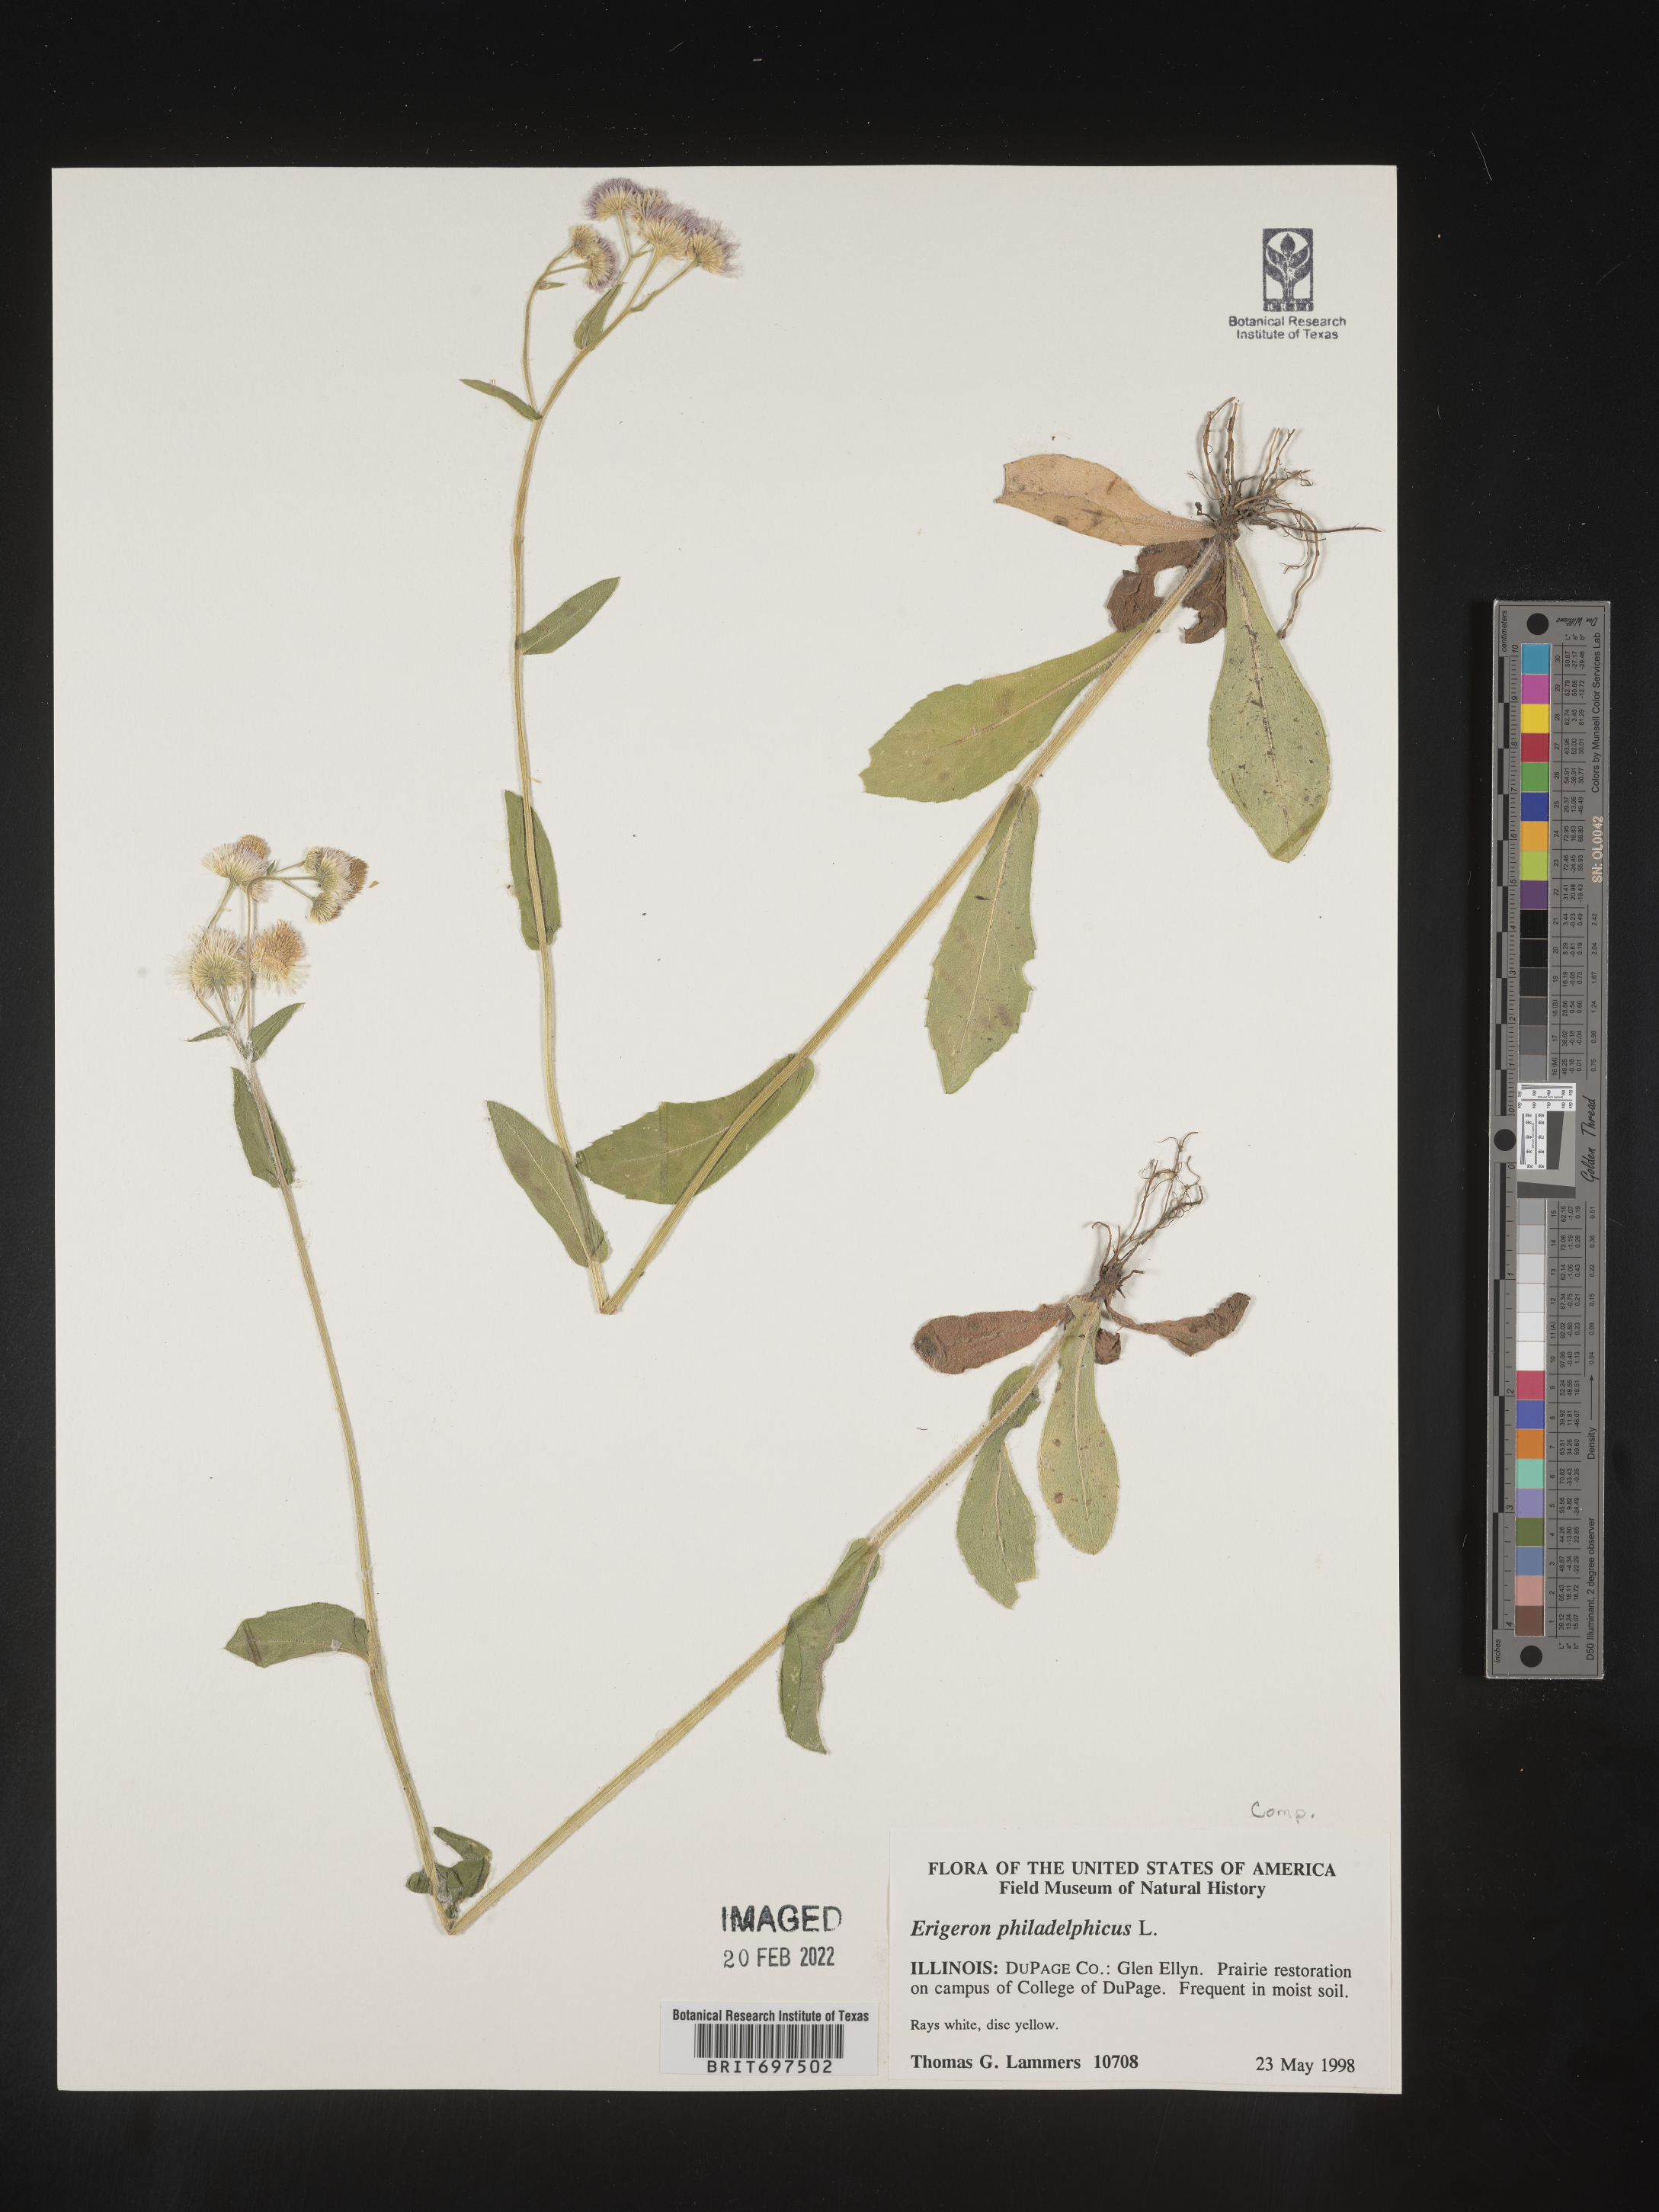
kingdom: Plantae
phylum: Tracheophyta
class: Magnoliopsida
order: Asterales
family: Asteraceae
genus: Erigeron
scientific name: Erigeron philadelphicus
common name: Robin's-plantain
